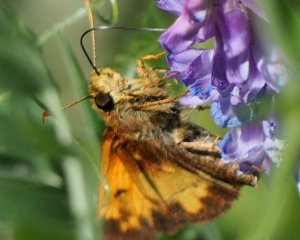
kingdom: Animalia
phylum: Arthropoda
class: Insecta
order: Lepidoptera
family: Hesperiidae
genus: Lon
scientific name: Lon hobomok
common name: Hobomok Skipper
